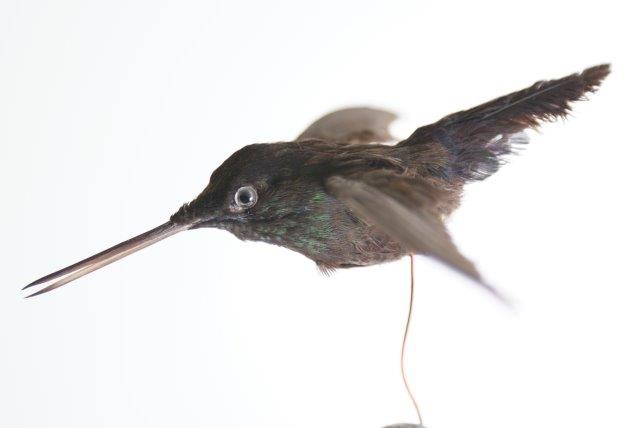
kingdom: Animalia
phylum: Chordata
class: Aves
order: Apodiformes
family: Trochilidae
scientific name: Trochilidae
